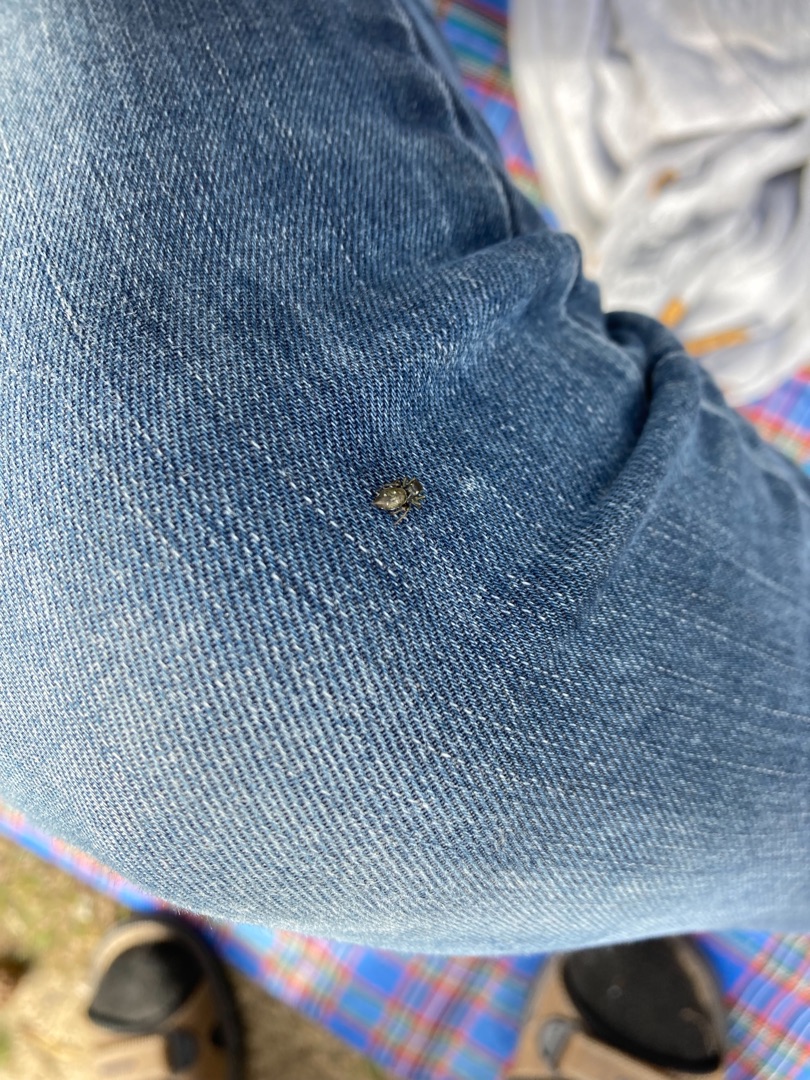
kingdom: Animalia
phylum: Arthropoda
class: Arachnida
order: Araneae
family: Salticidae
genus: Heliophanus
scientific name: Heliophanus
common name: Sortspringerslægten
